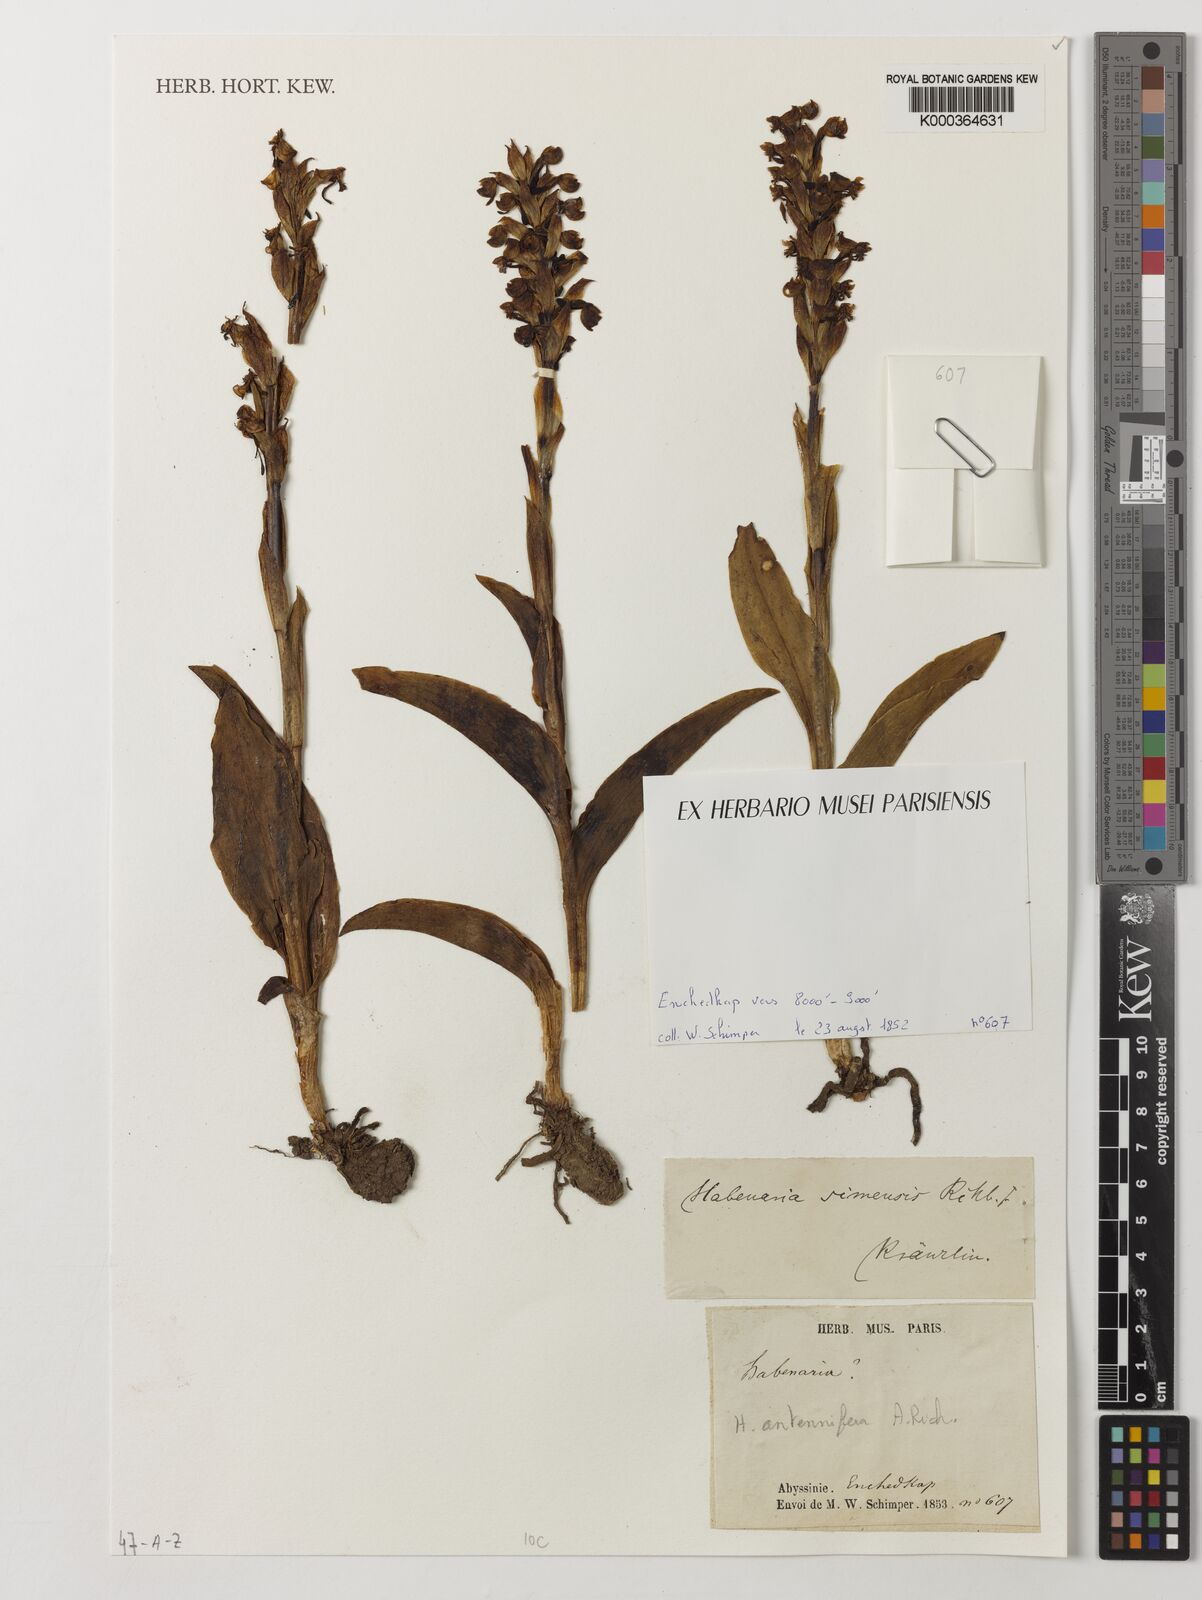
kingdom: Plantae
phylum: Tracheophyta
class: Liliopsida
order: Asparagales
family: Orchidaceae
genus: Habenaria
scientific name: Habenaria
